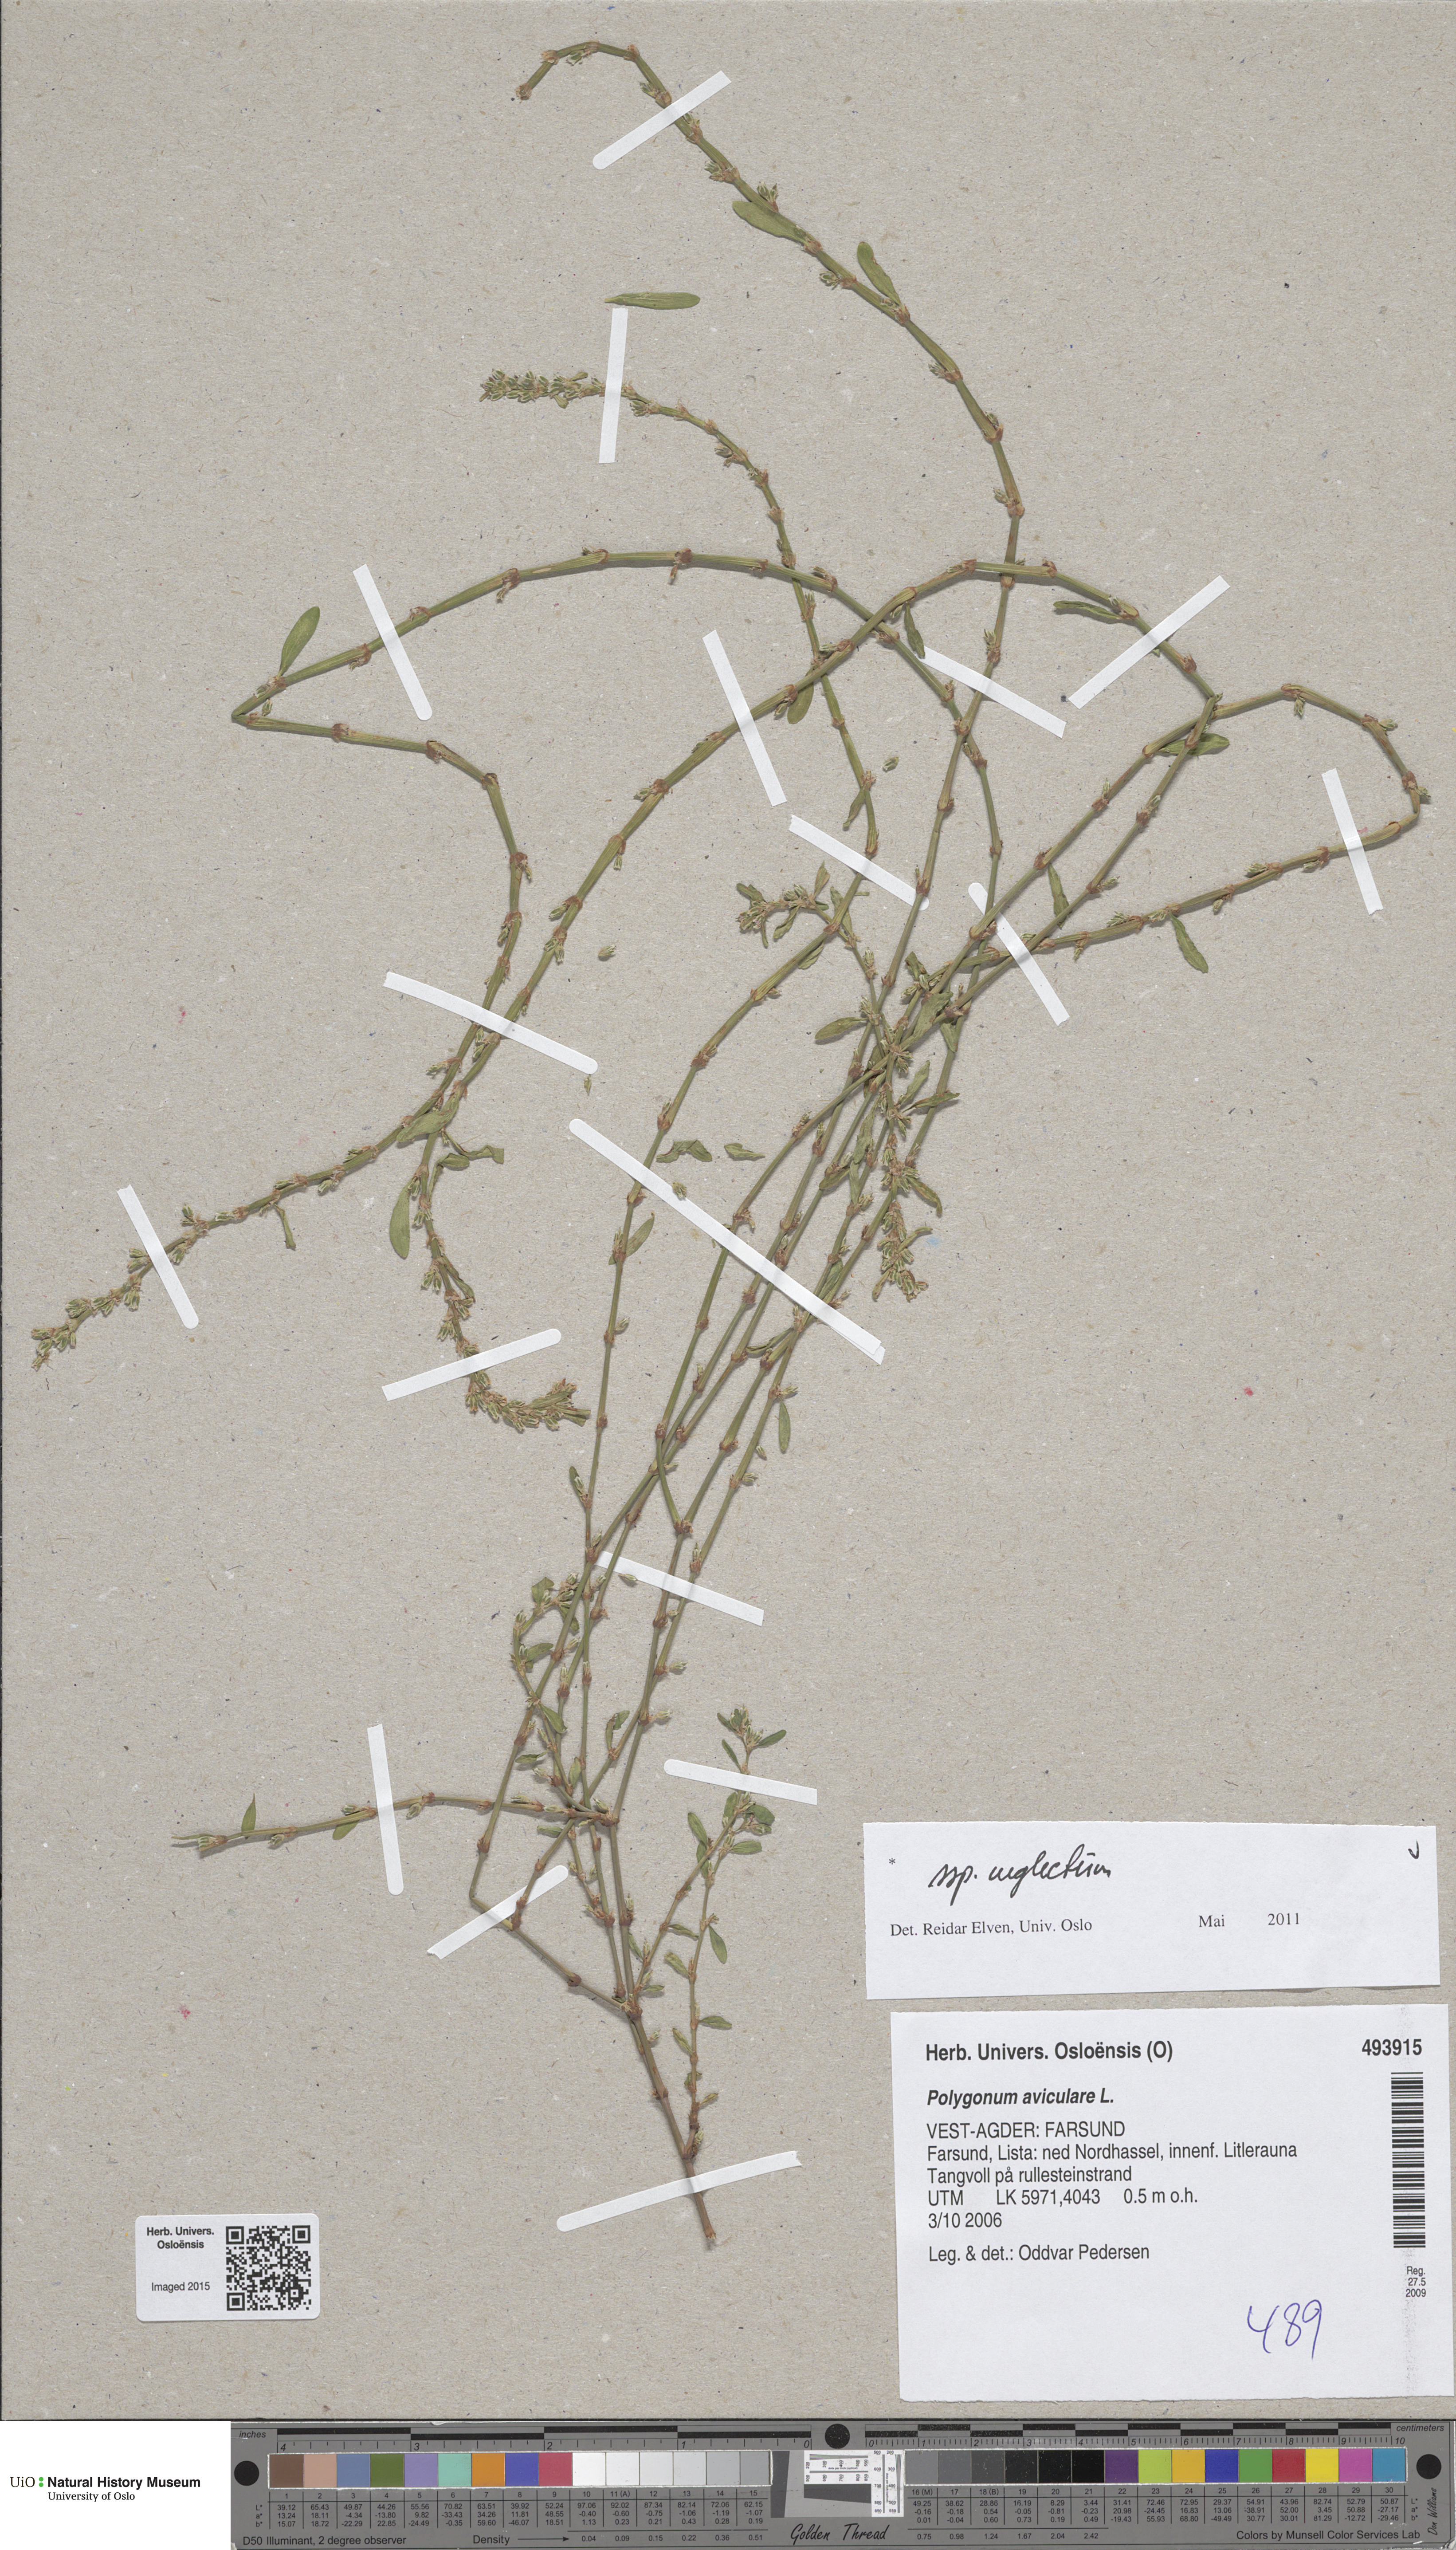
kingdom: Plantae
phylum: Tracheophyta
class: Magnoliopsida
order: Caryophyllales
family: Polygonaceae
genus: Polygonum
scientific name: Polygonum aviculare
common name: Prostrate knotweed
